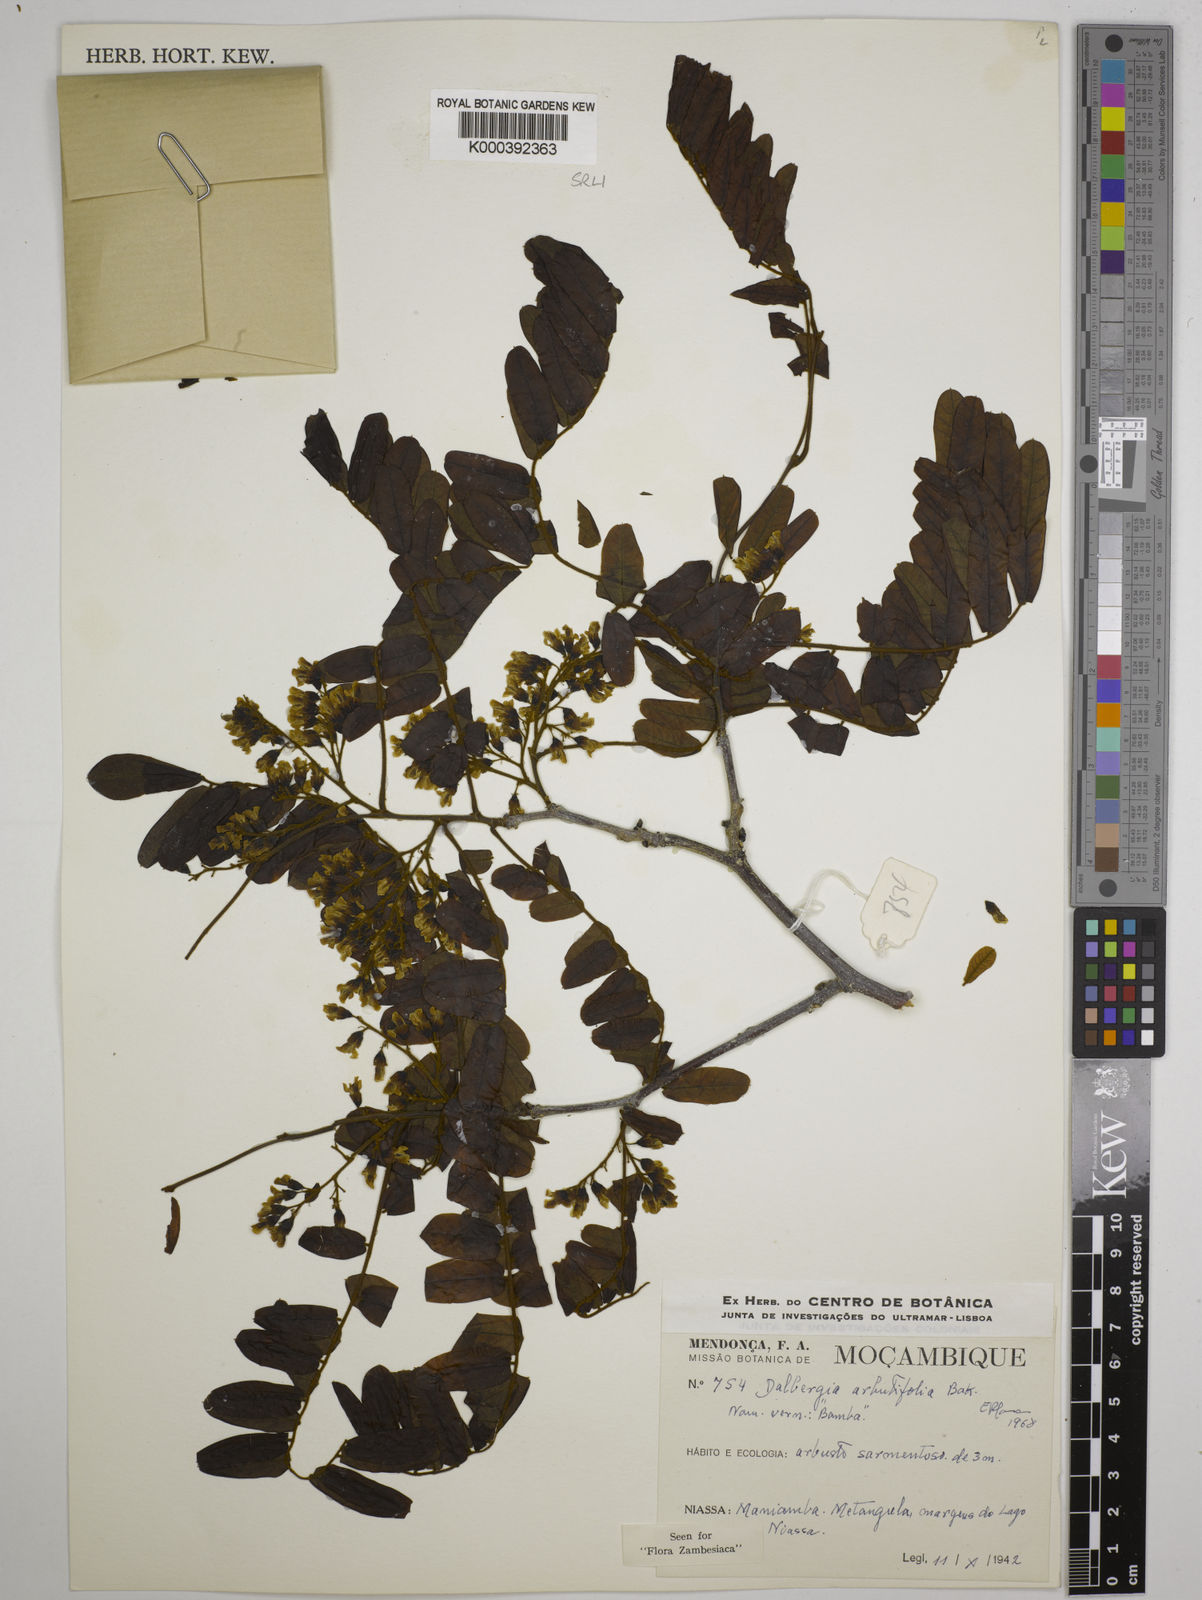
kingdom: Plantae
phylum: Tracheophyta
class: Magnoliopsida
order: Fabales
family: Fabaceae
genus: Dalbergia
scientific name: Dalbergia arbutifolia
